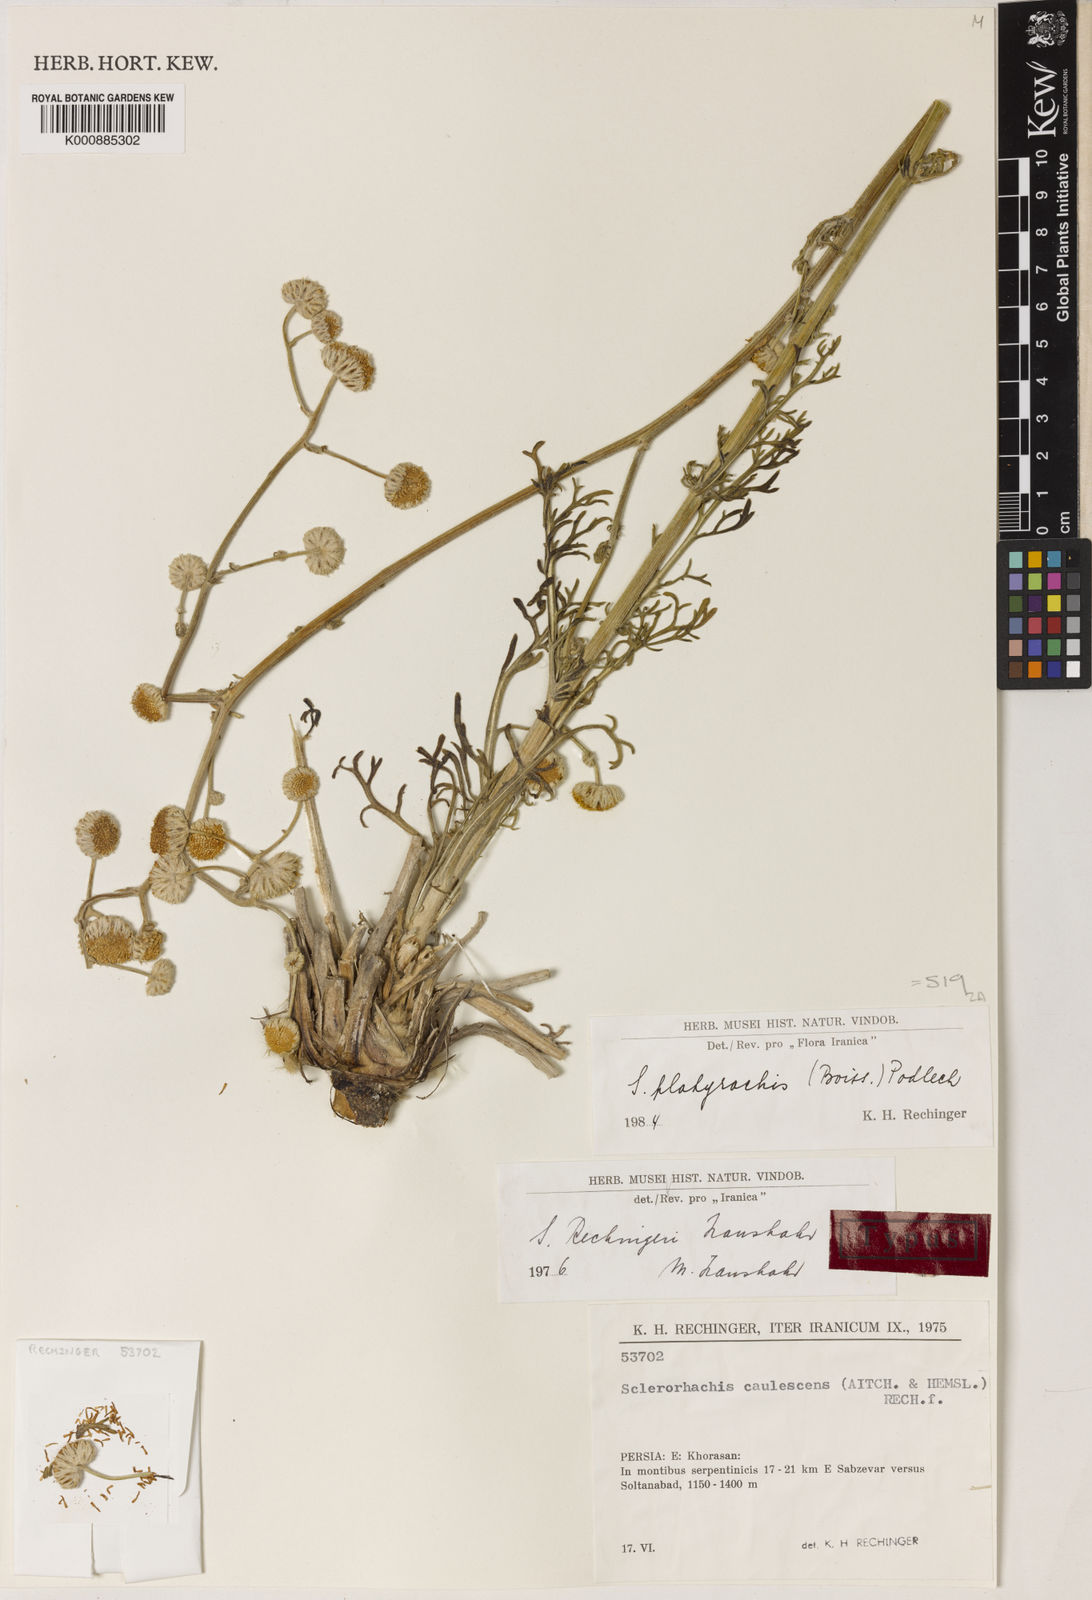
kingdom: Plantae
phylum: Tracheophyta
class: Magnoliopsida
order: Asterales
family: Asteraceae
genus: Sclerorhachis
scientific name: Sclerorhachis platyrachis
